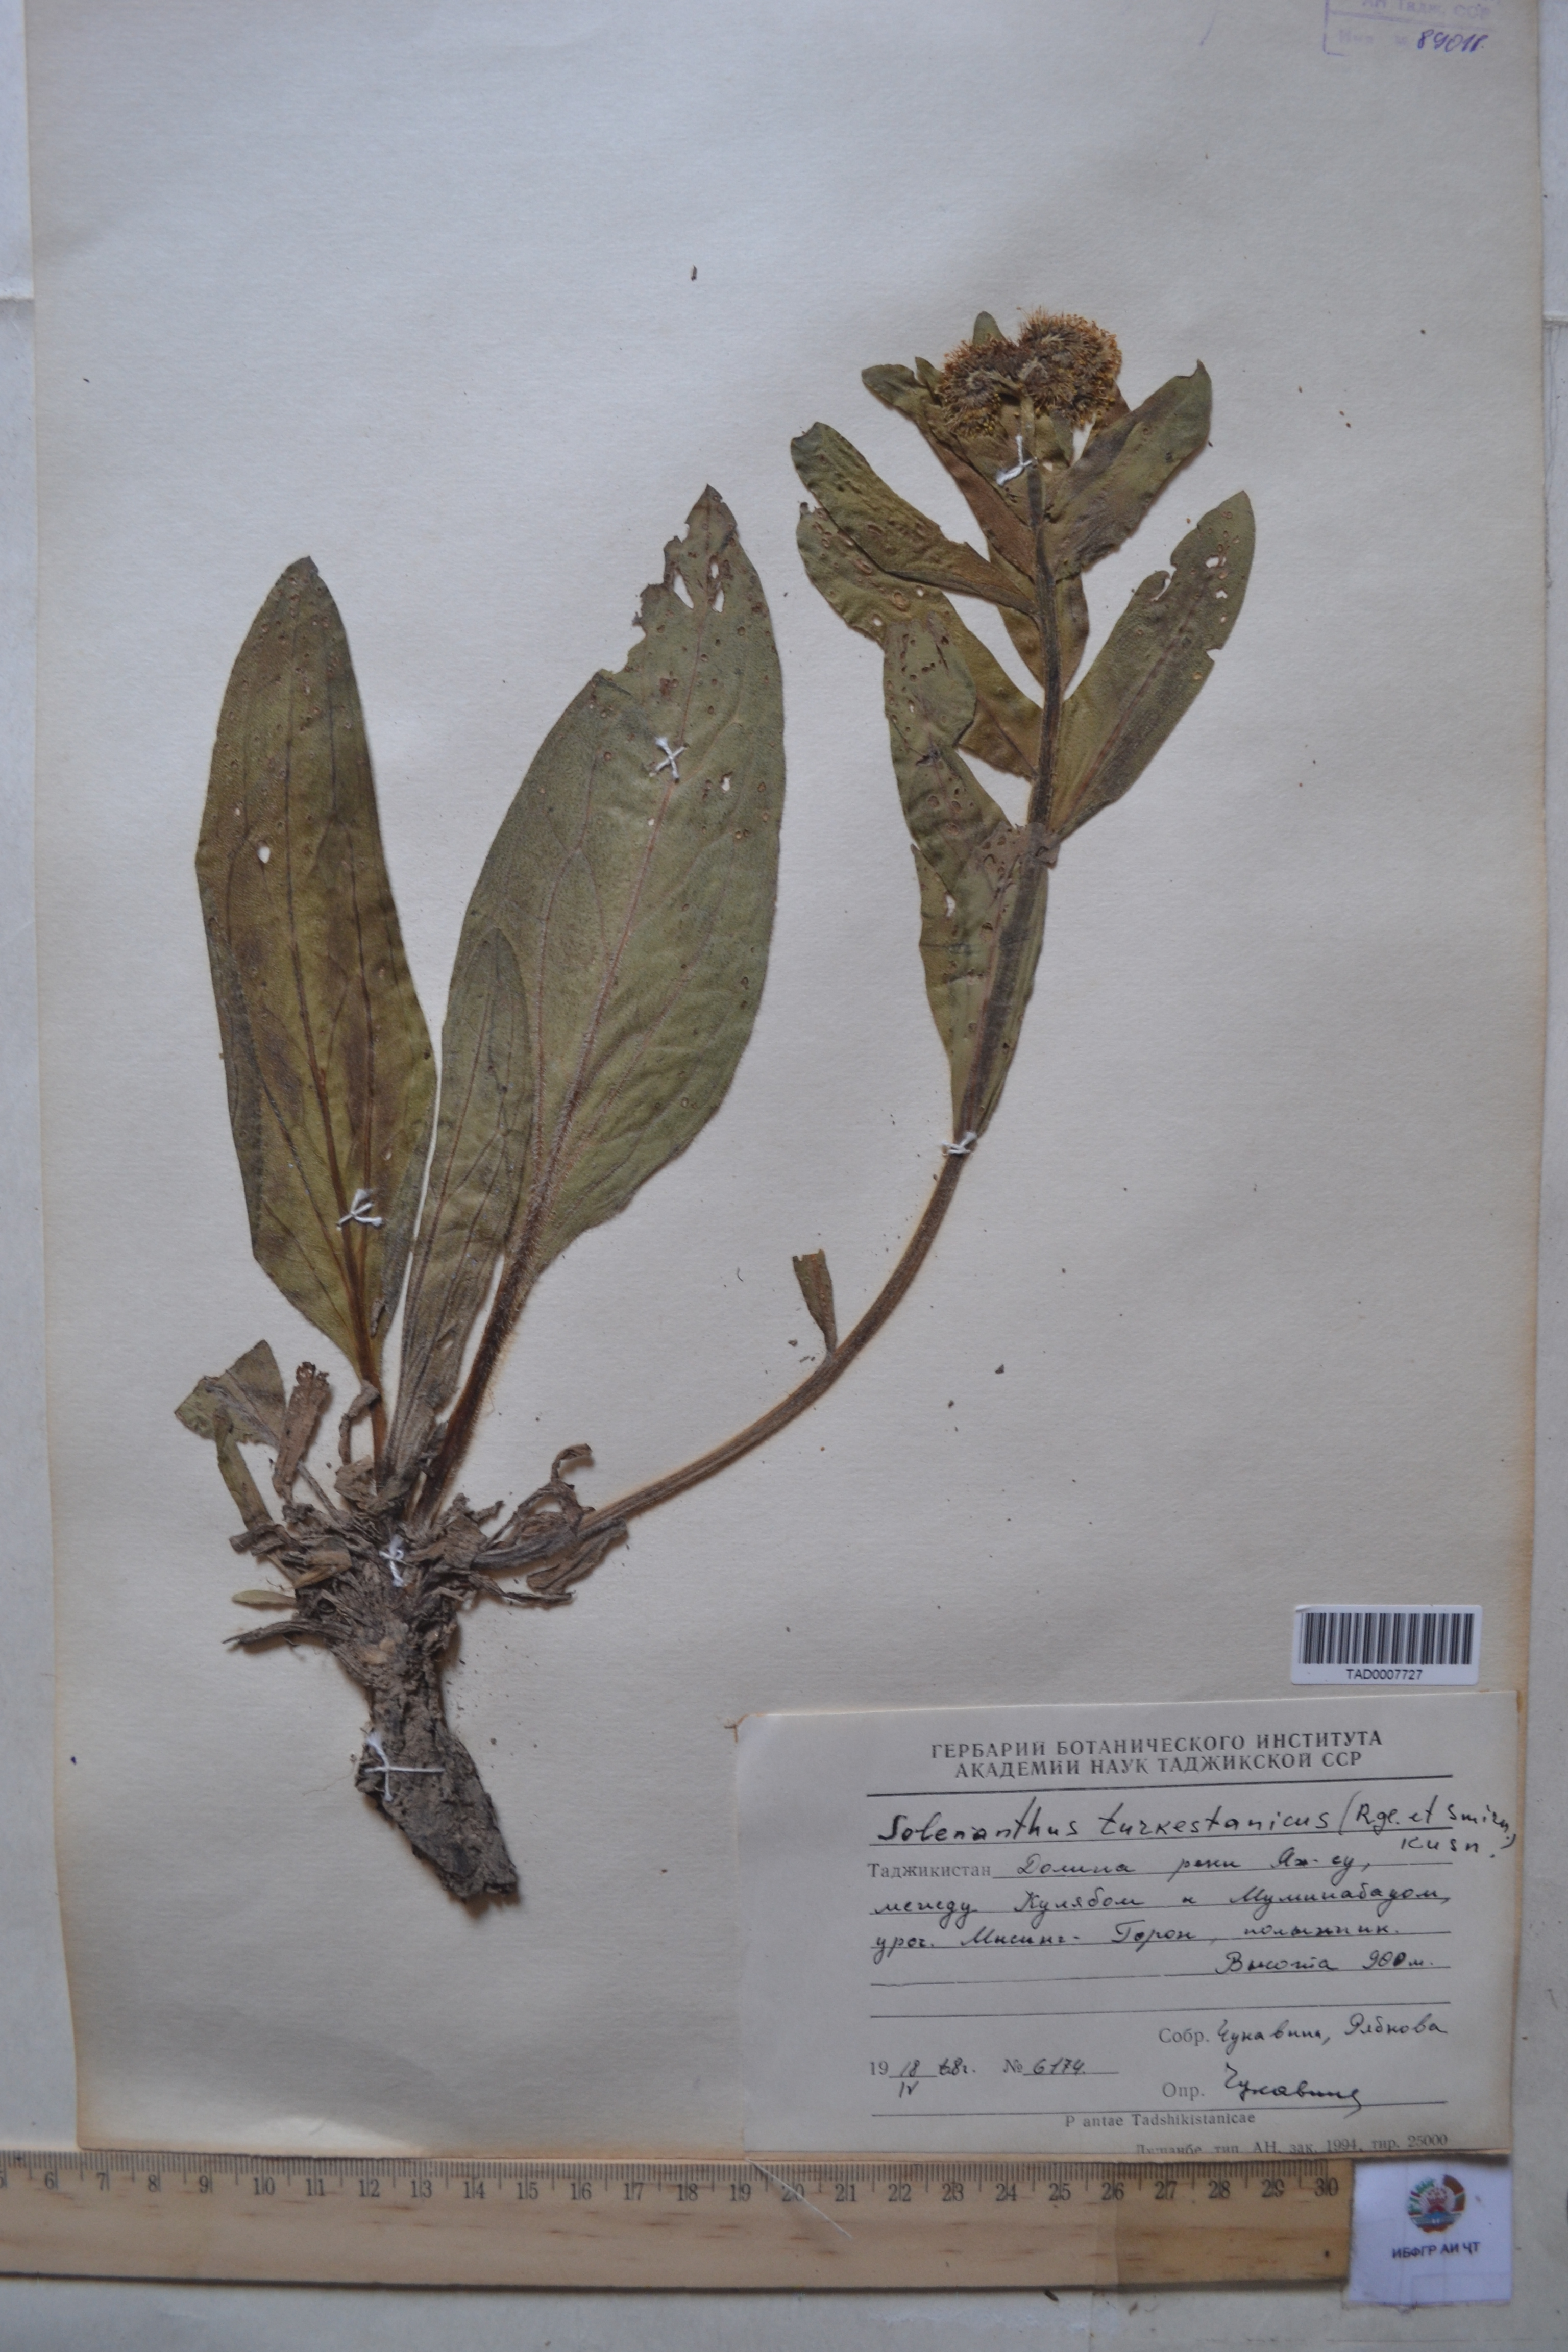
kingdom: Plantae
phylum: Tracheophyta
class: Magnoliopsida
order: Boraginales
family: Boraginaceae
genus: Solenanthus
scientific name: Solenanthus turkestanicus
